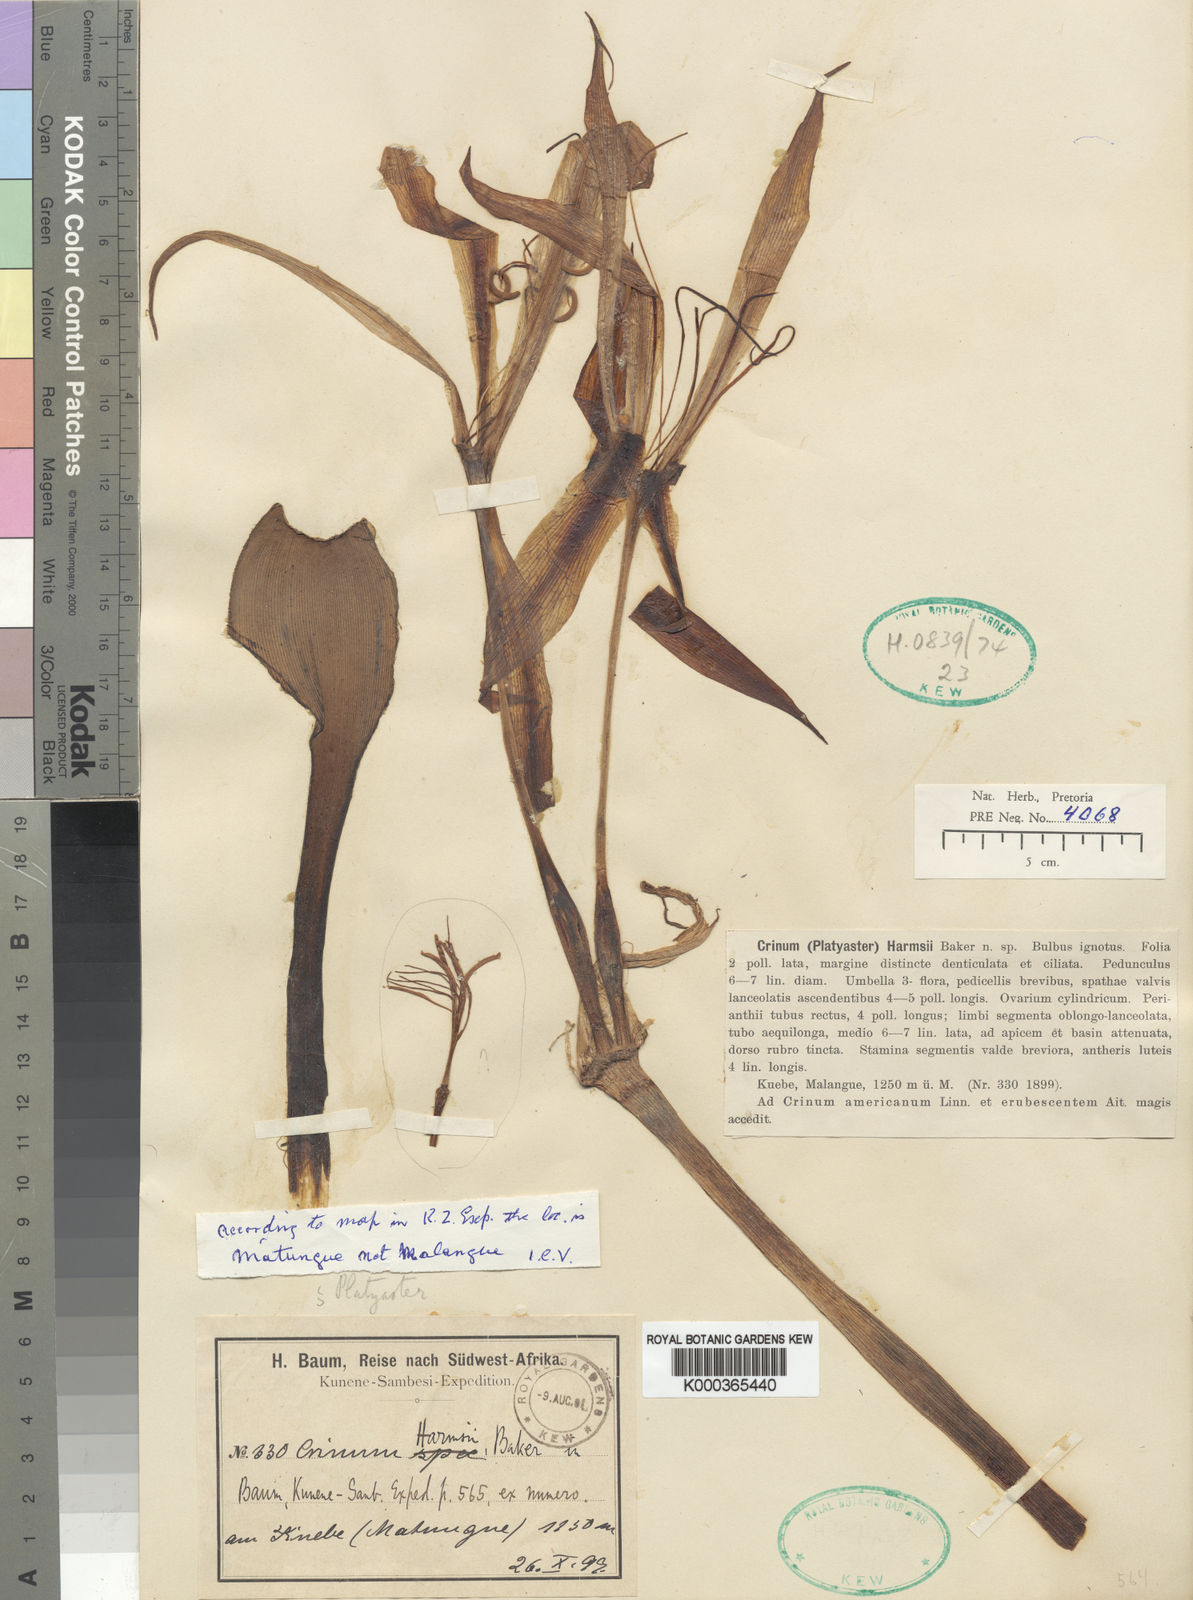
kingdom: Plantae
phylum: Tracheophyta
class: Liliopsida
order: Asparagales
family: Amaryllidaceae
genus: Crinum
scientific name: Crinum harmsii
